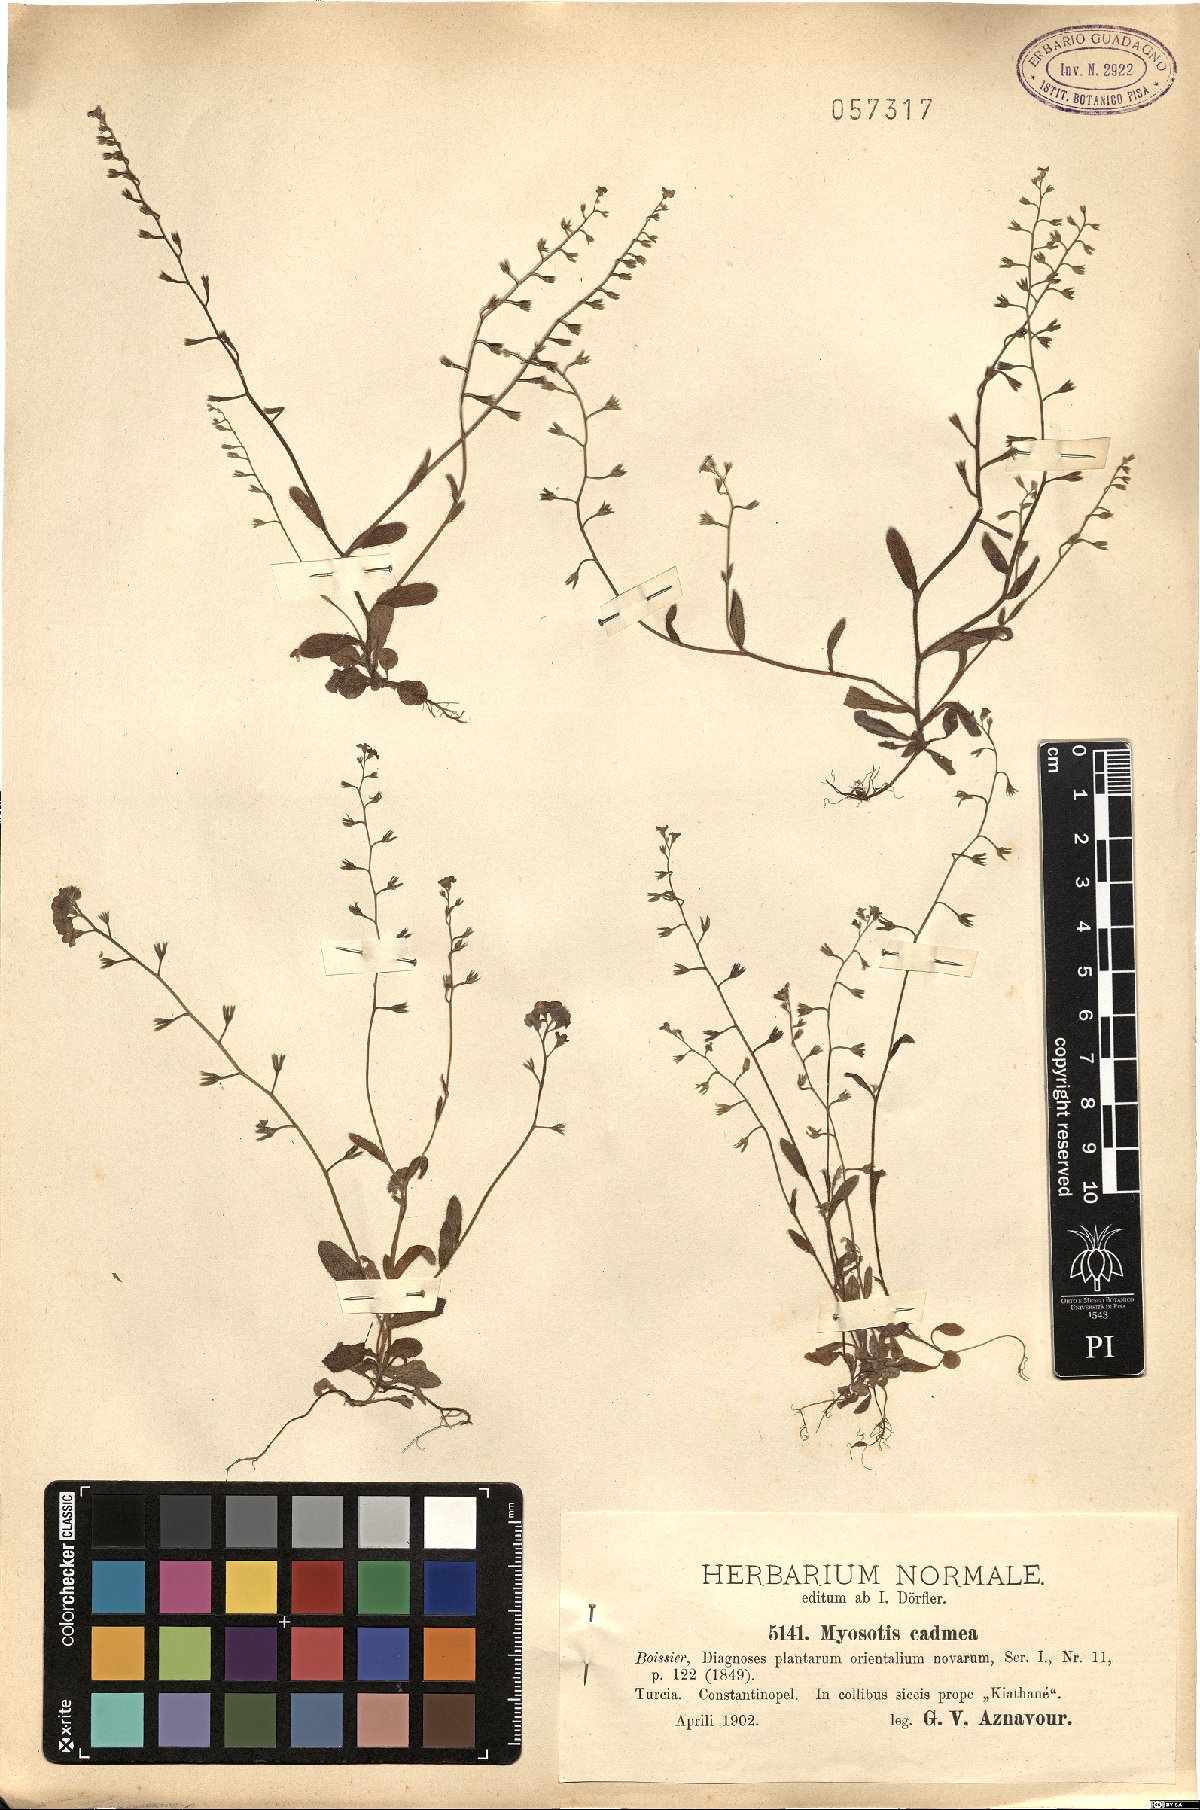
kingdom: Plantae
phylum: Tracheophyta
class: Magnoliopsida
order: Boraginales
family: Boraginaceae
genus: Myosotis
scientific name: Myosotis cadmea
